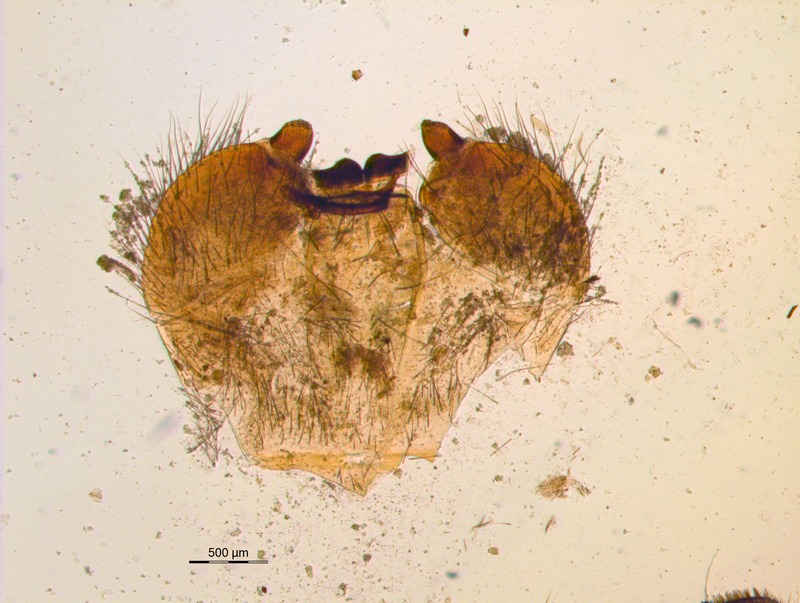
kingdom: Animalia
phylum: Arthropoda
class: Diplopoda
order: Sphaerotheriida
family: Arthrosphaeridae
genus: Arthrosphaera
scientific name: Arthrosphaera indica
